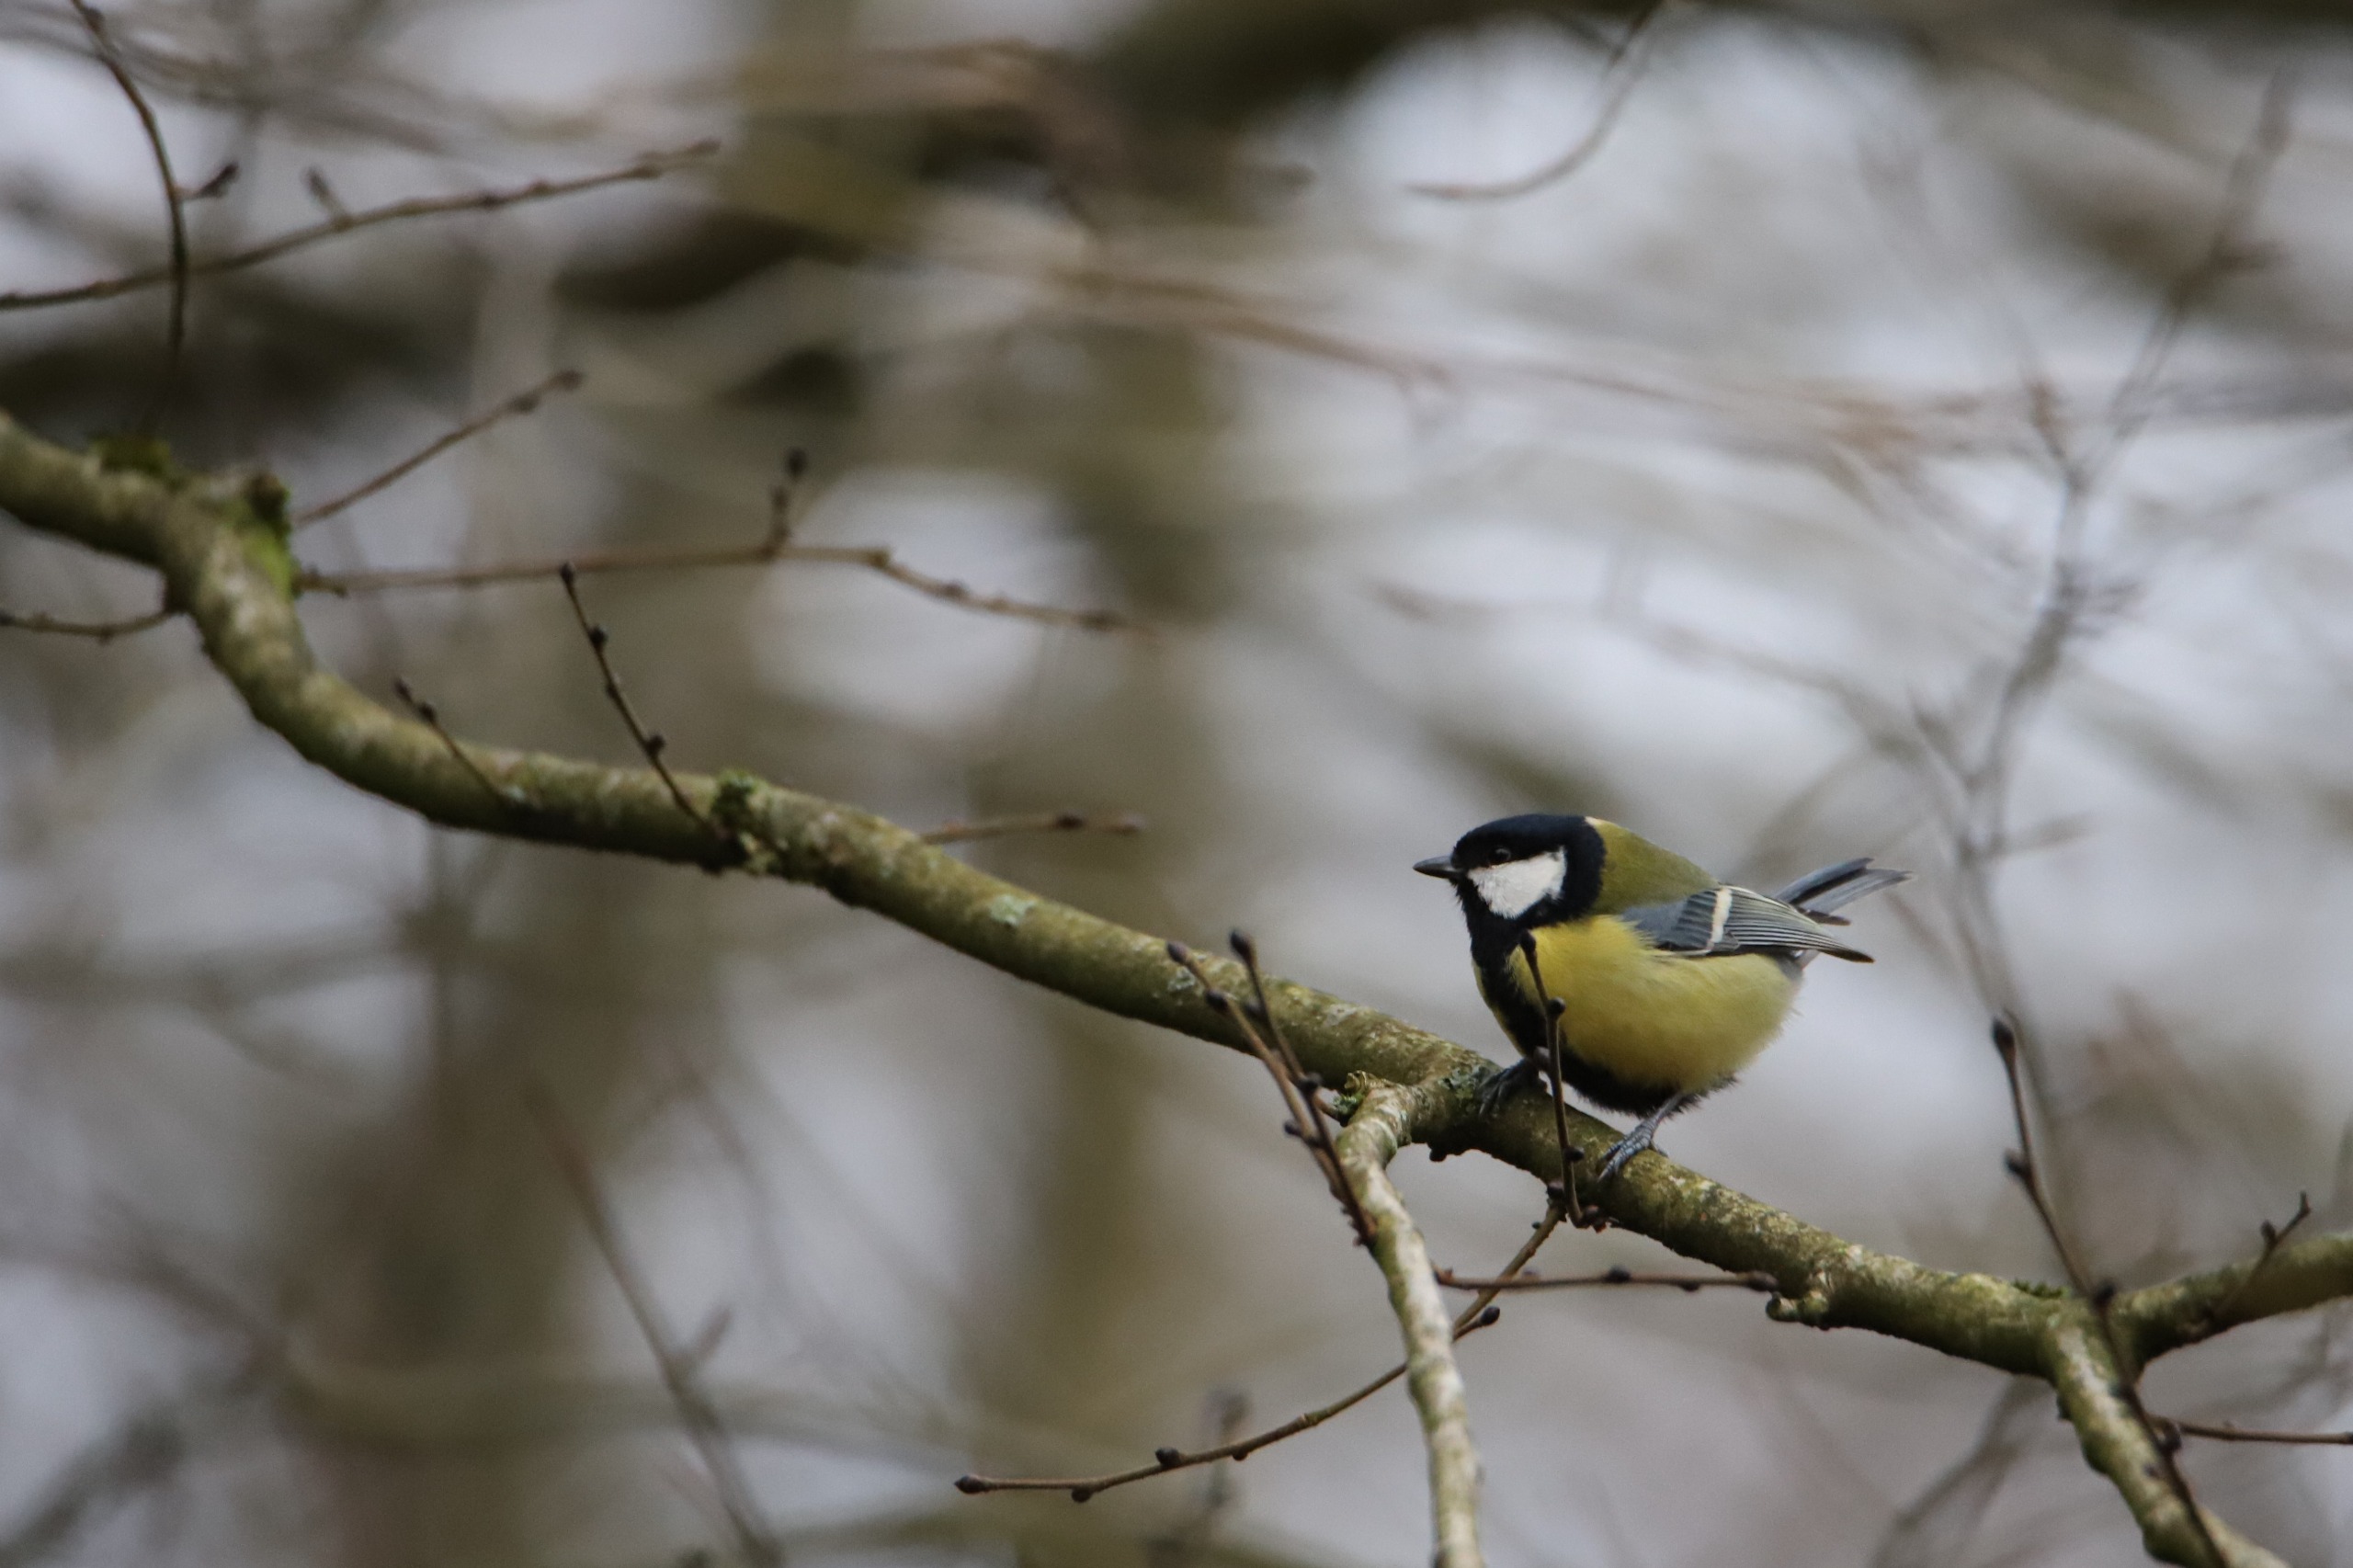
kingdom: Animalia
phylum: Chordata
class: Aves
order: Passeriformes
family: Paridae
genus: Parus
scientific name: Parus major
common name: Musvit
